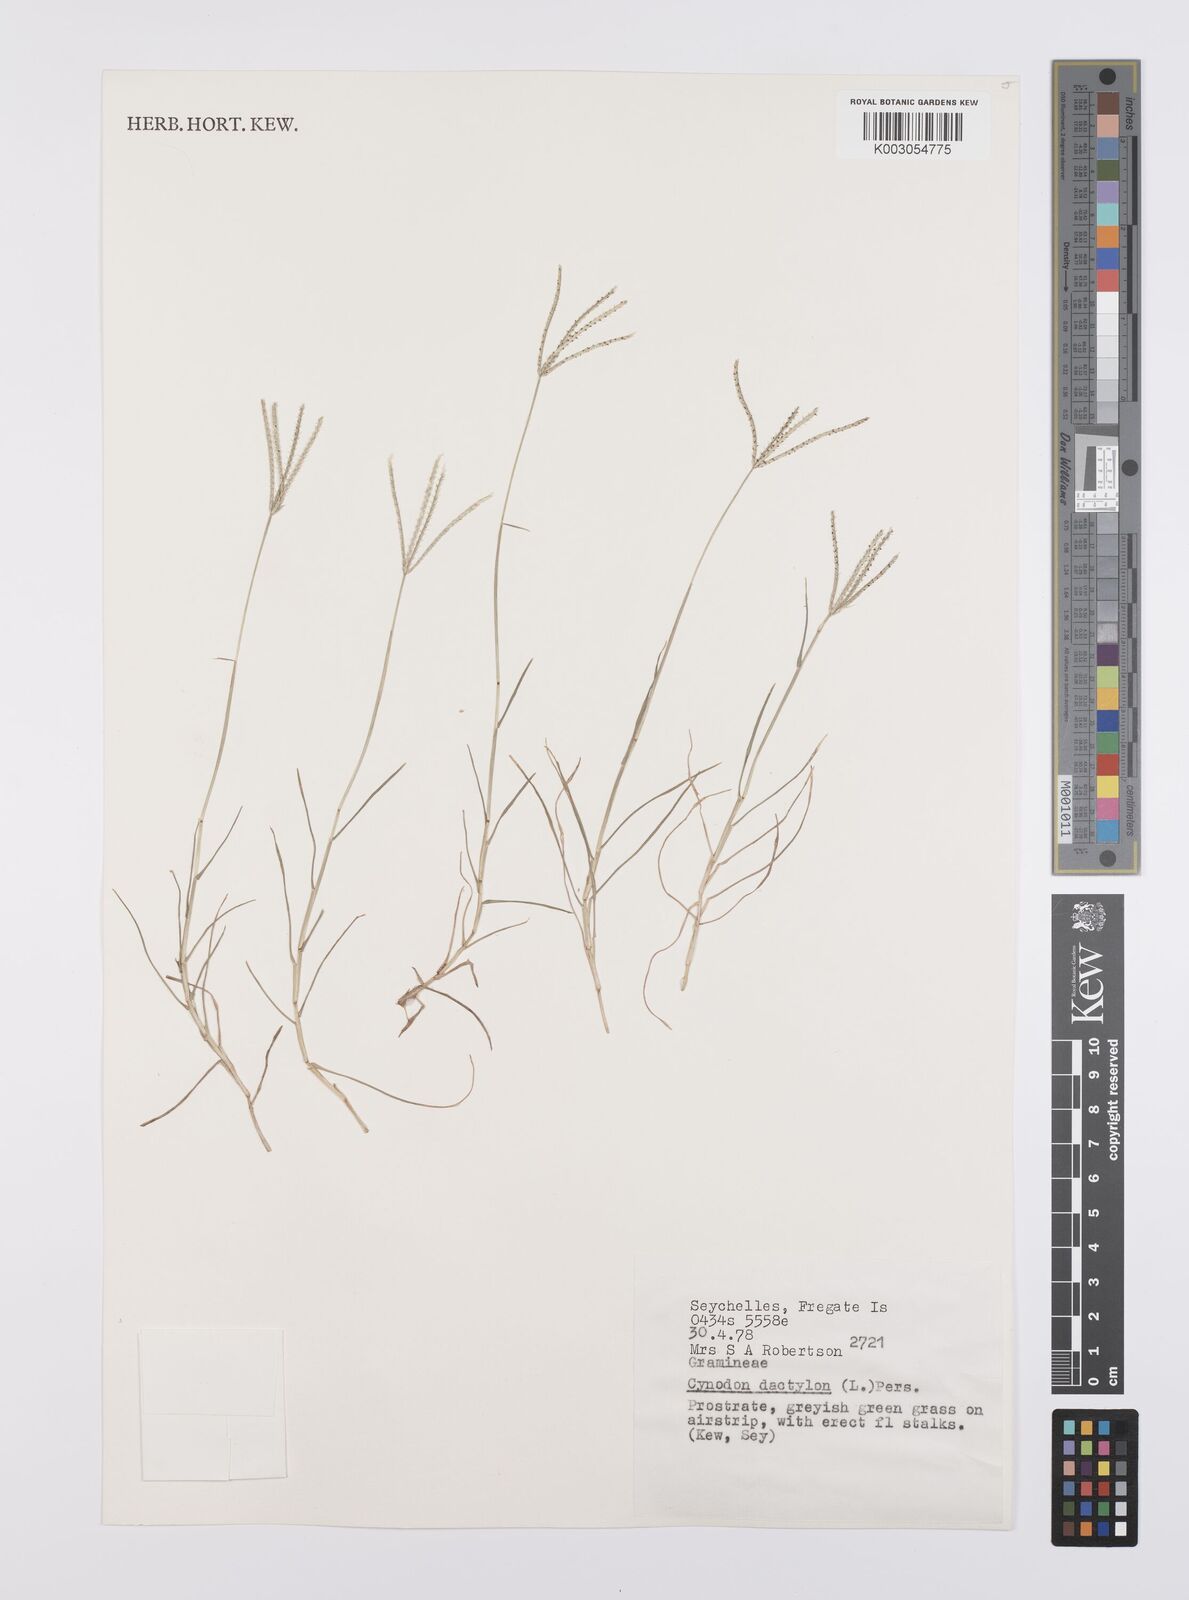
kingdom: Plantae
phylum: Tracheophyta
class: Liliopsida
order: Poales
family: Poaceae
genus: Cynodon
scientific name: Cynodon dactylon
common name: Bermuda grass
